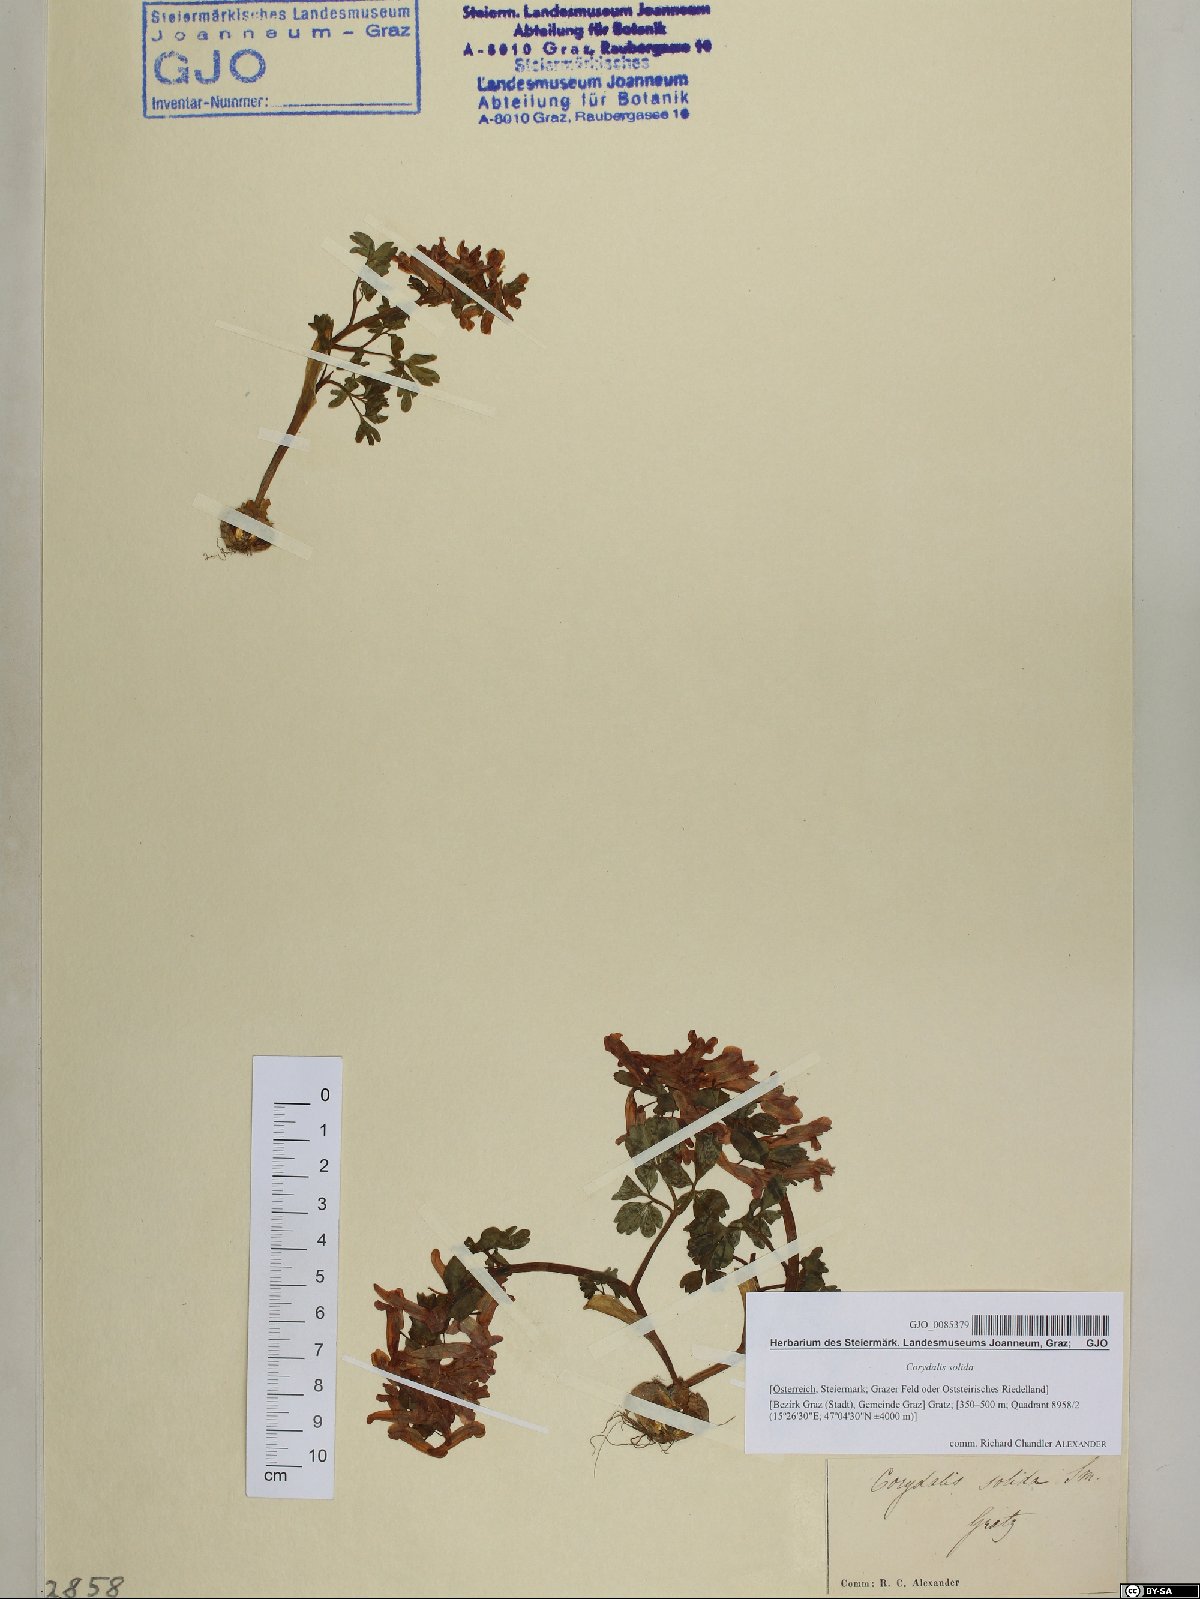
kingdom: Plantae
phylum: Tracheophyta
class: Magnoliopsida
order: Ranunculales
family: Papaveraceae
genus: Corydalis
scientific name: Corydalis solida
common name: Bird-in-a-bush
